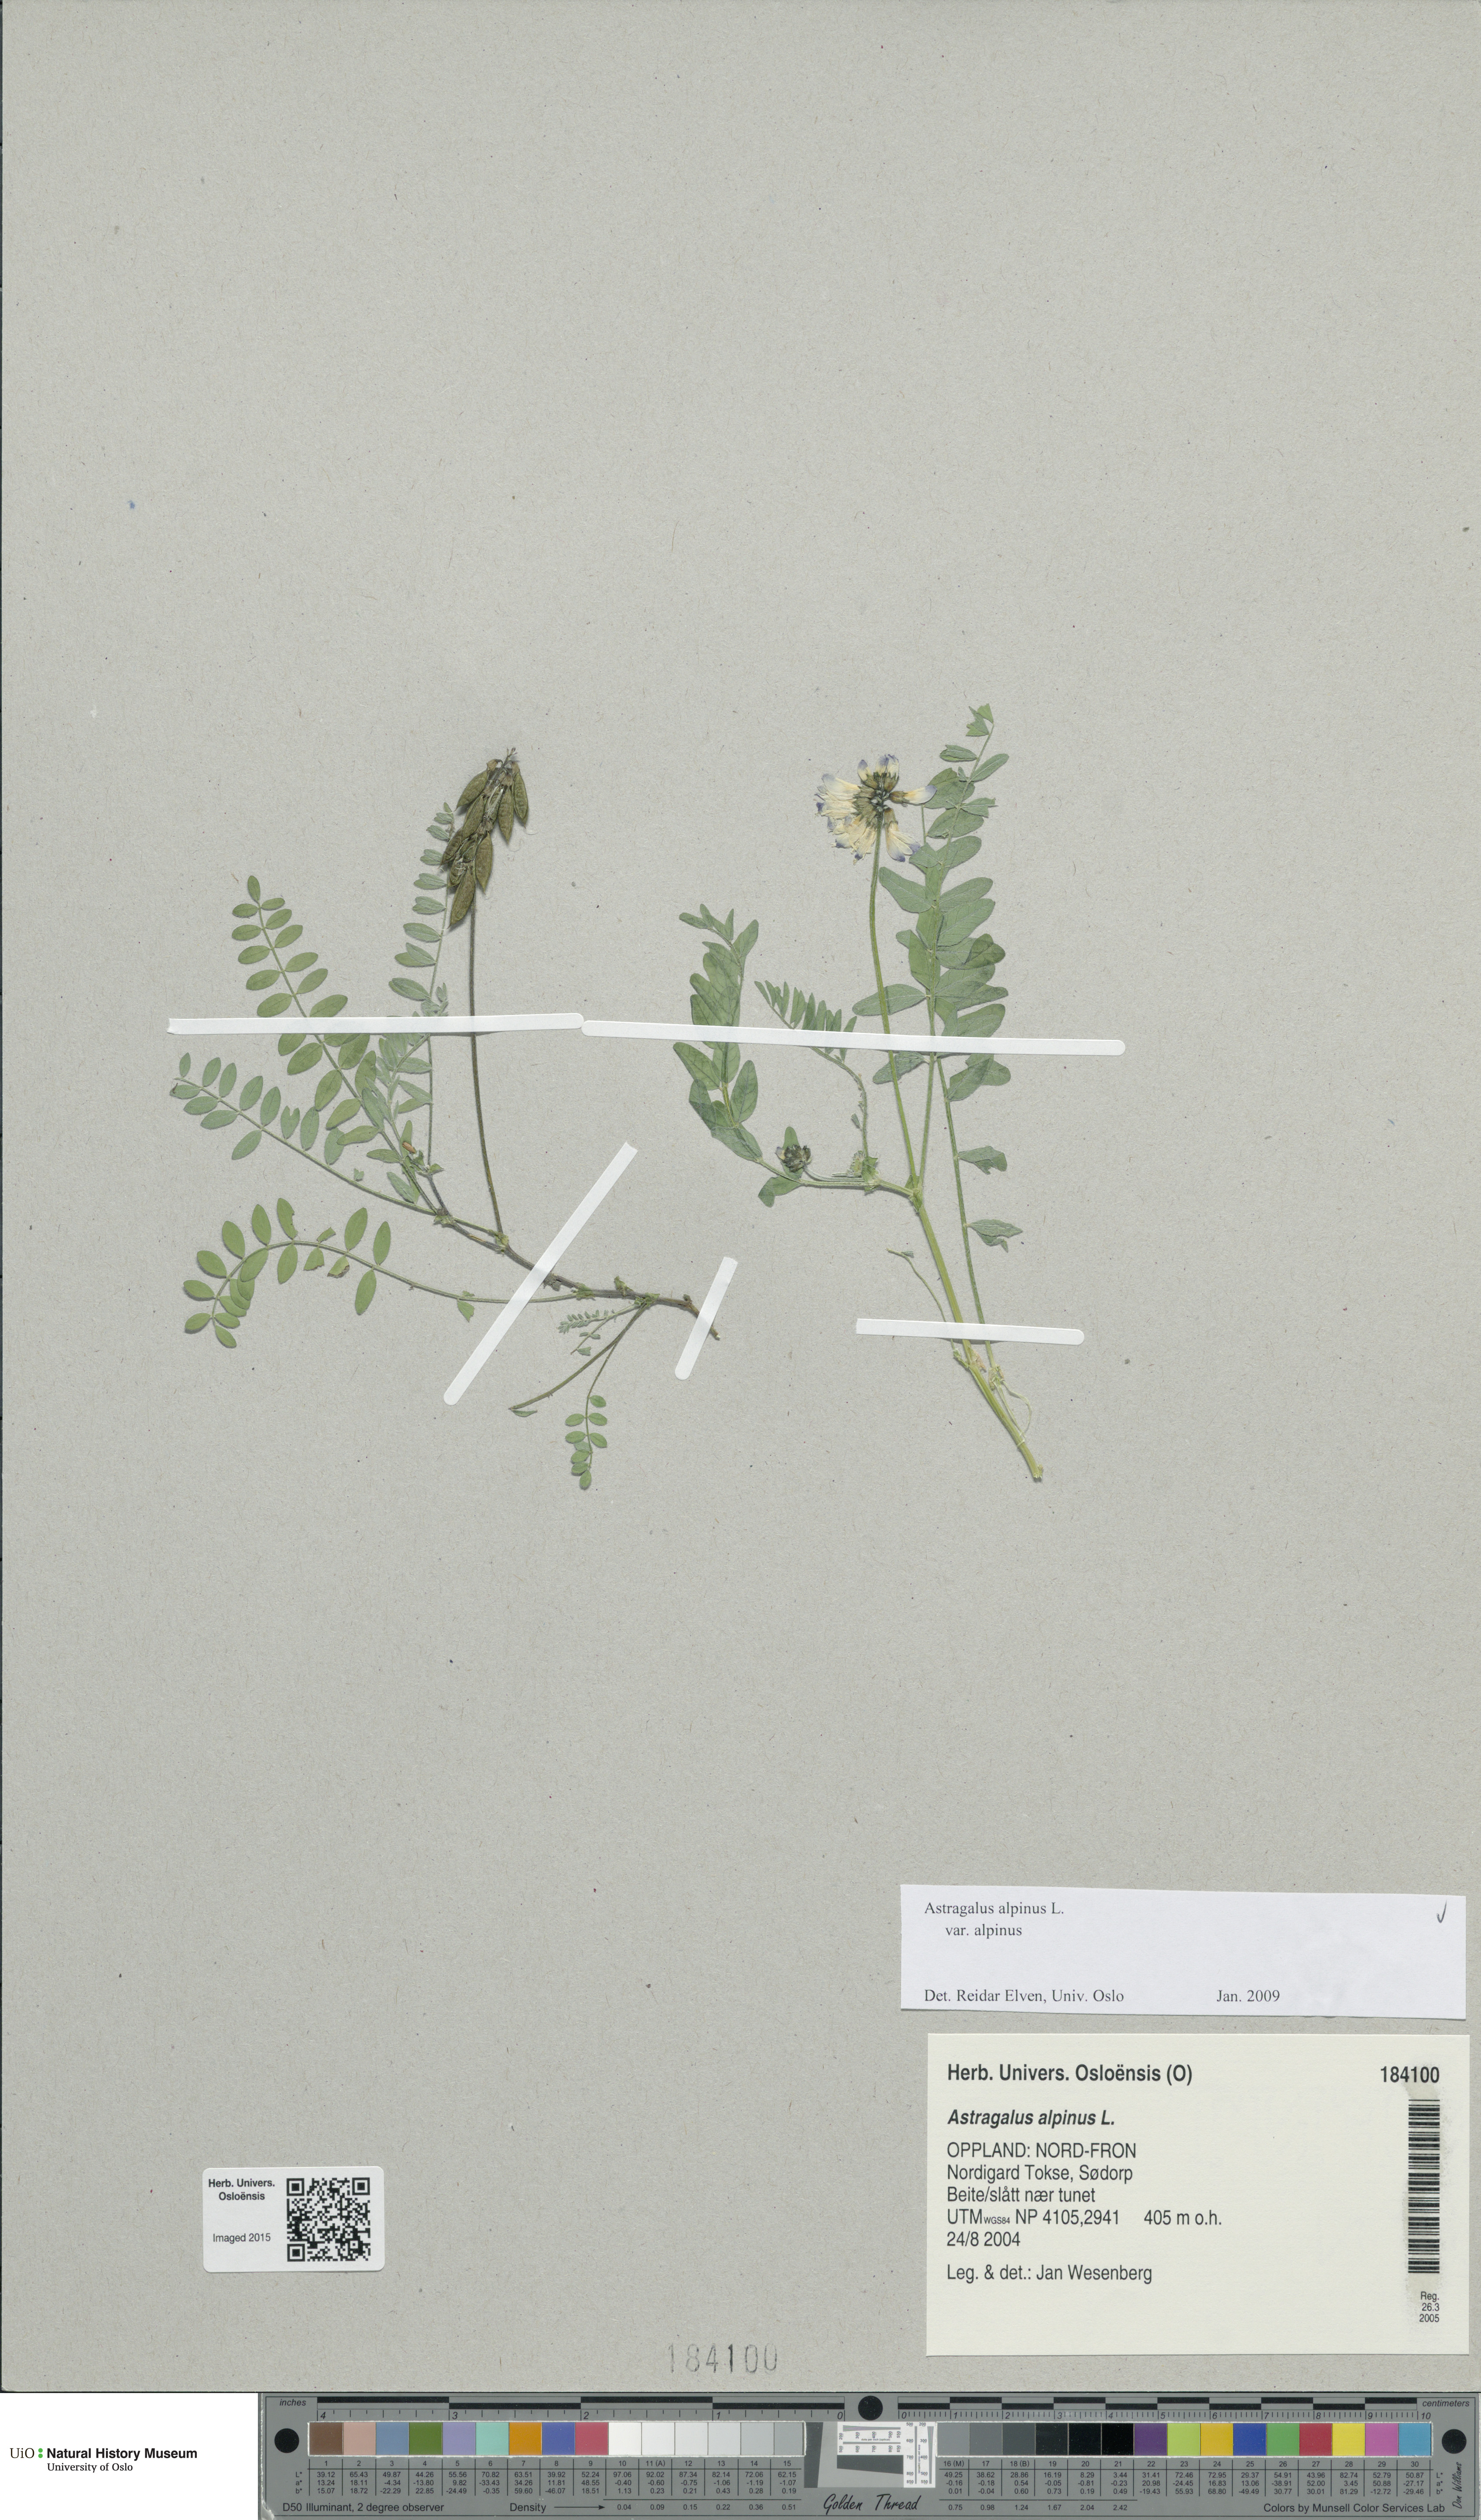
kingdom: Plantae
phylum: Tracheophyta
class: Magnoliopsida
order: Fabales
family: Fabaceae
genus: Astragalus
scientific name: Astragalus alpinus
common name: Alpine milk-vetch
